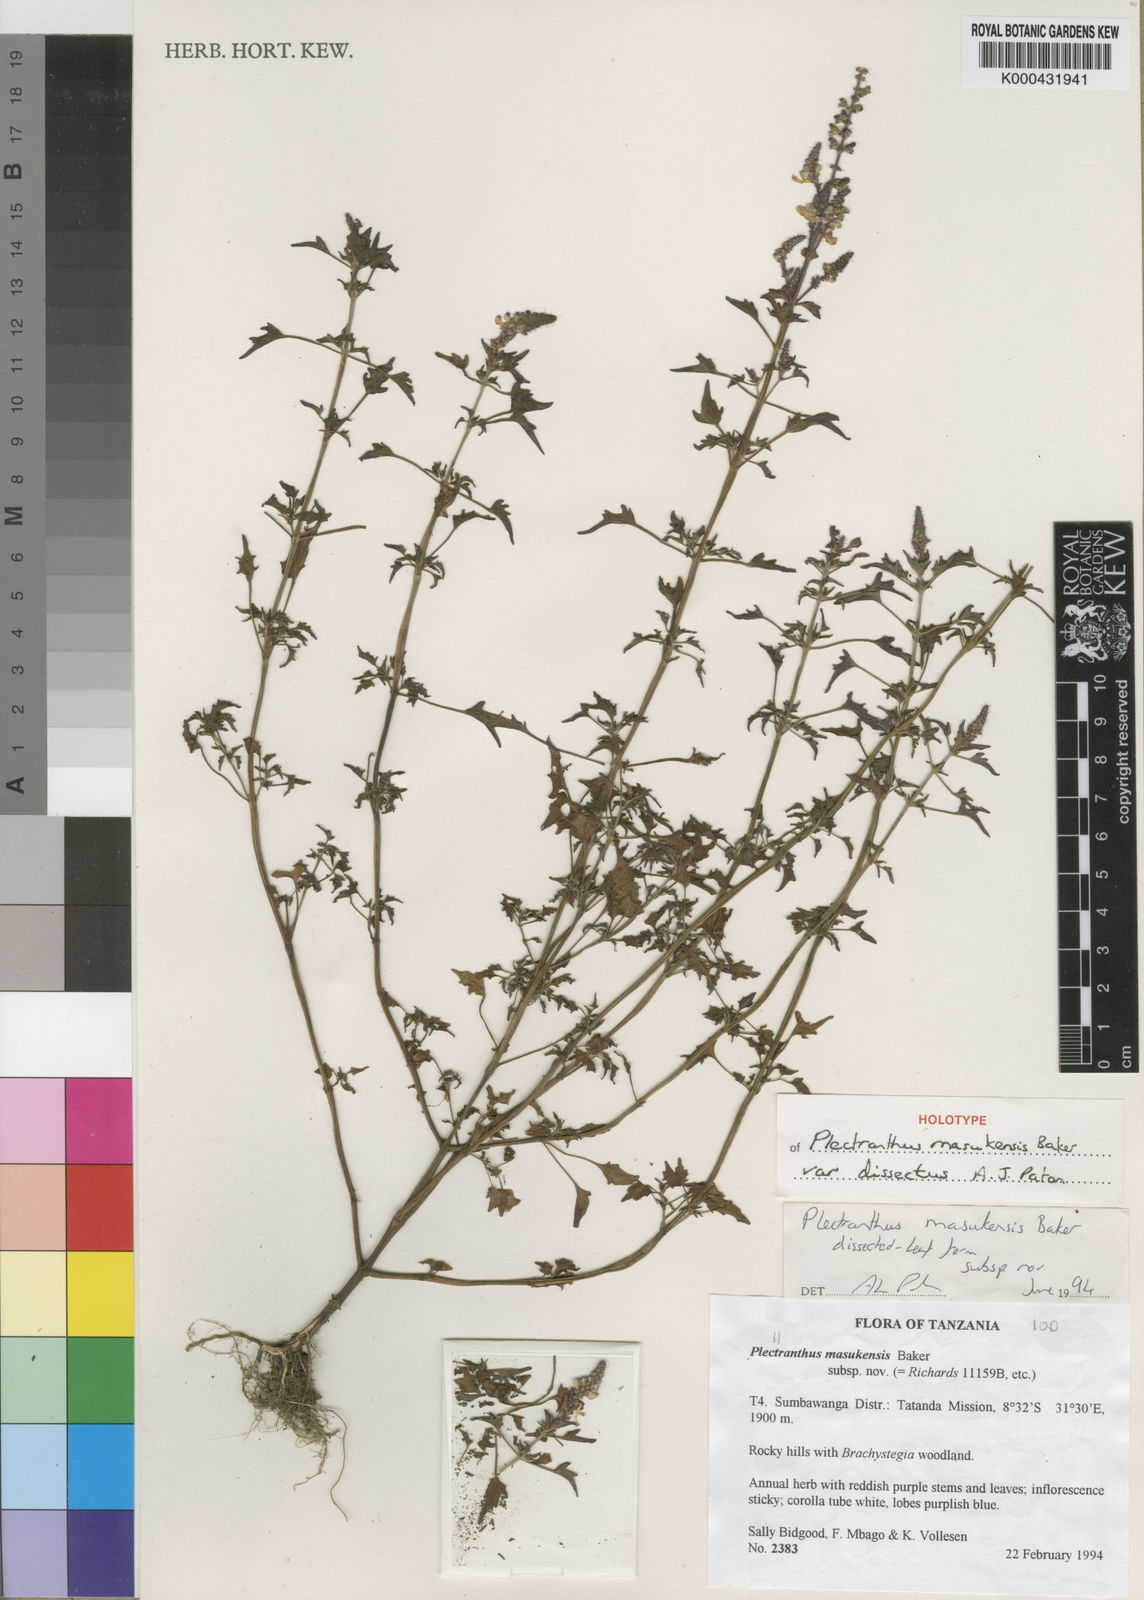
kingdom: Plantae
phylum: Tracheophyta
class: Magnoliopsida
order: Lamiales
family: Lamiaceae
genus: Equilabium
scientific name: Equilabium masukense
